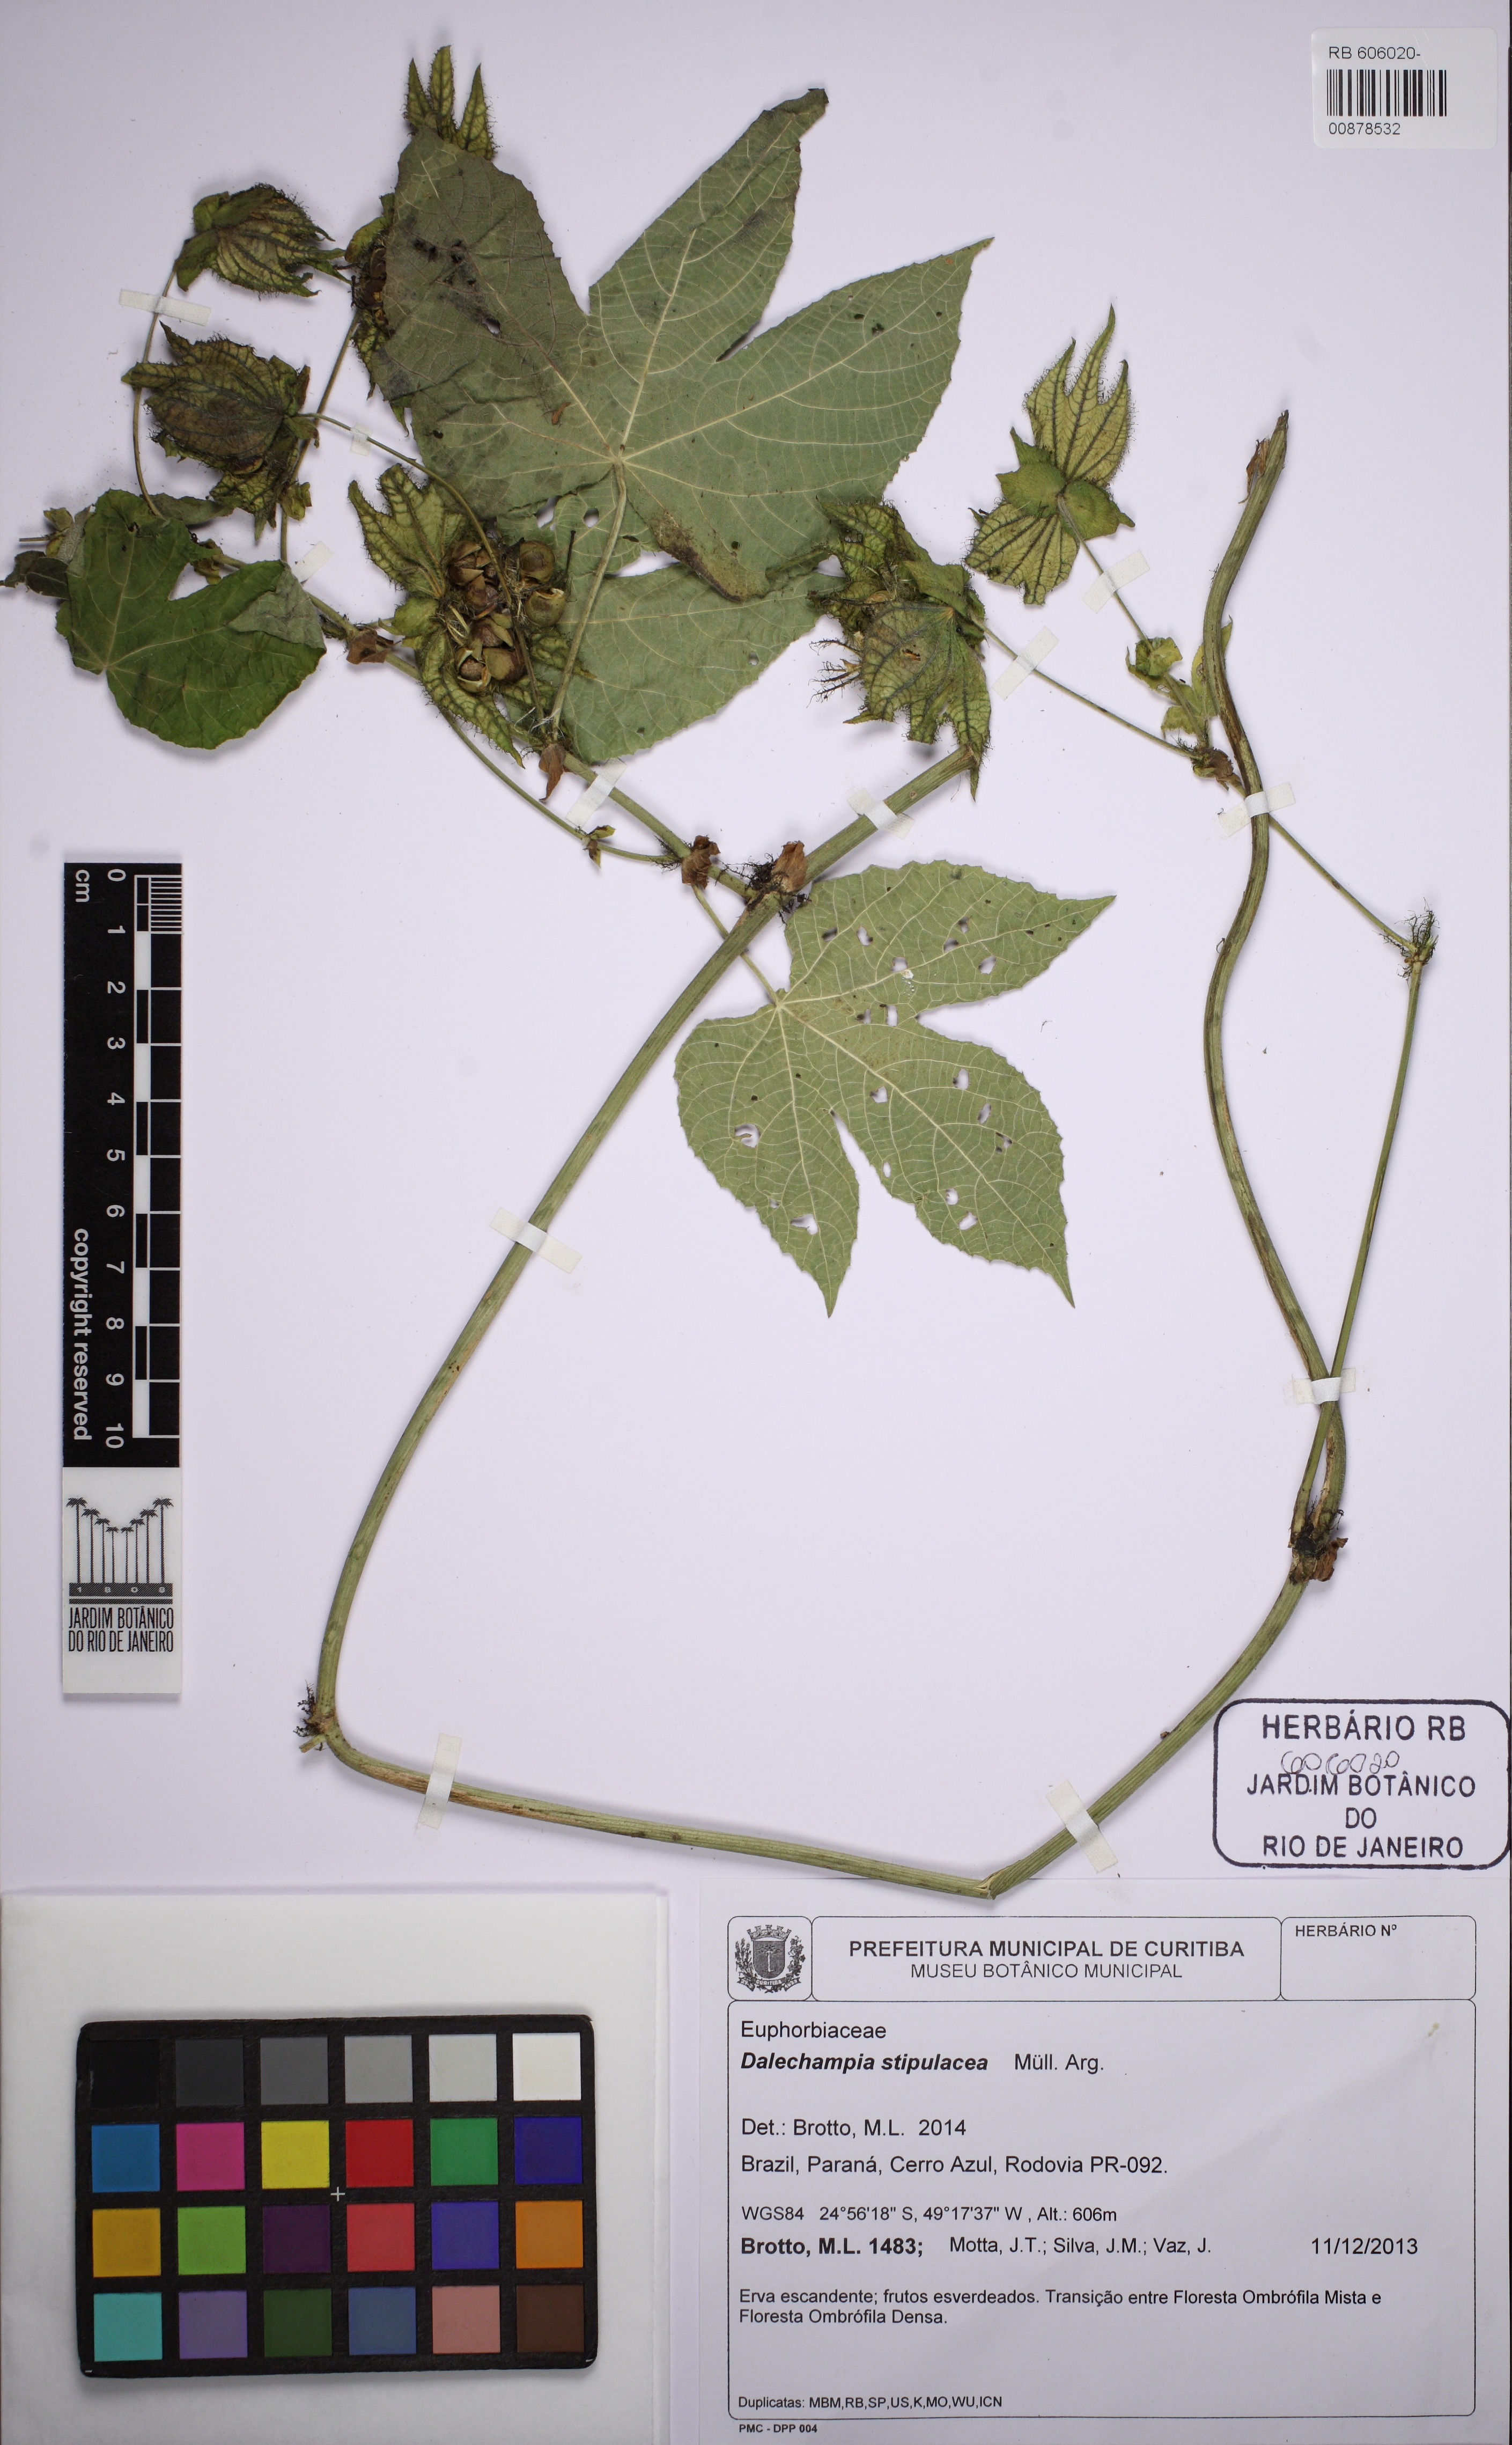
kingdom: Plantae
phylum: Tracheophyta
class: Magnoliopsida
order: Malpighiales
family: Euphorbiaceae
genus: Dalechampia
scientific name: Dalechampia stipulacea
